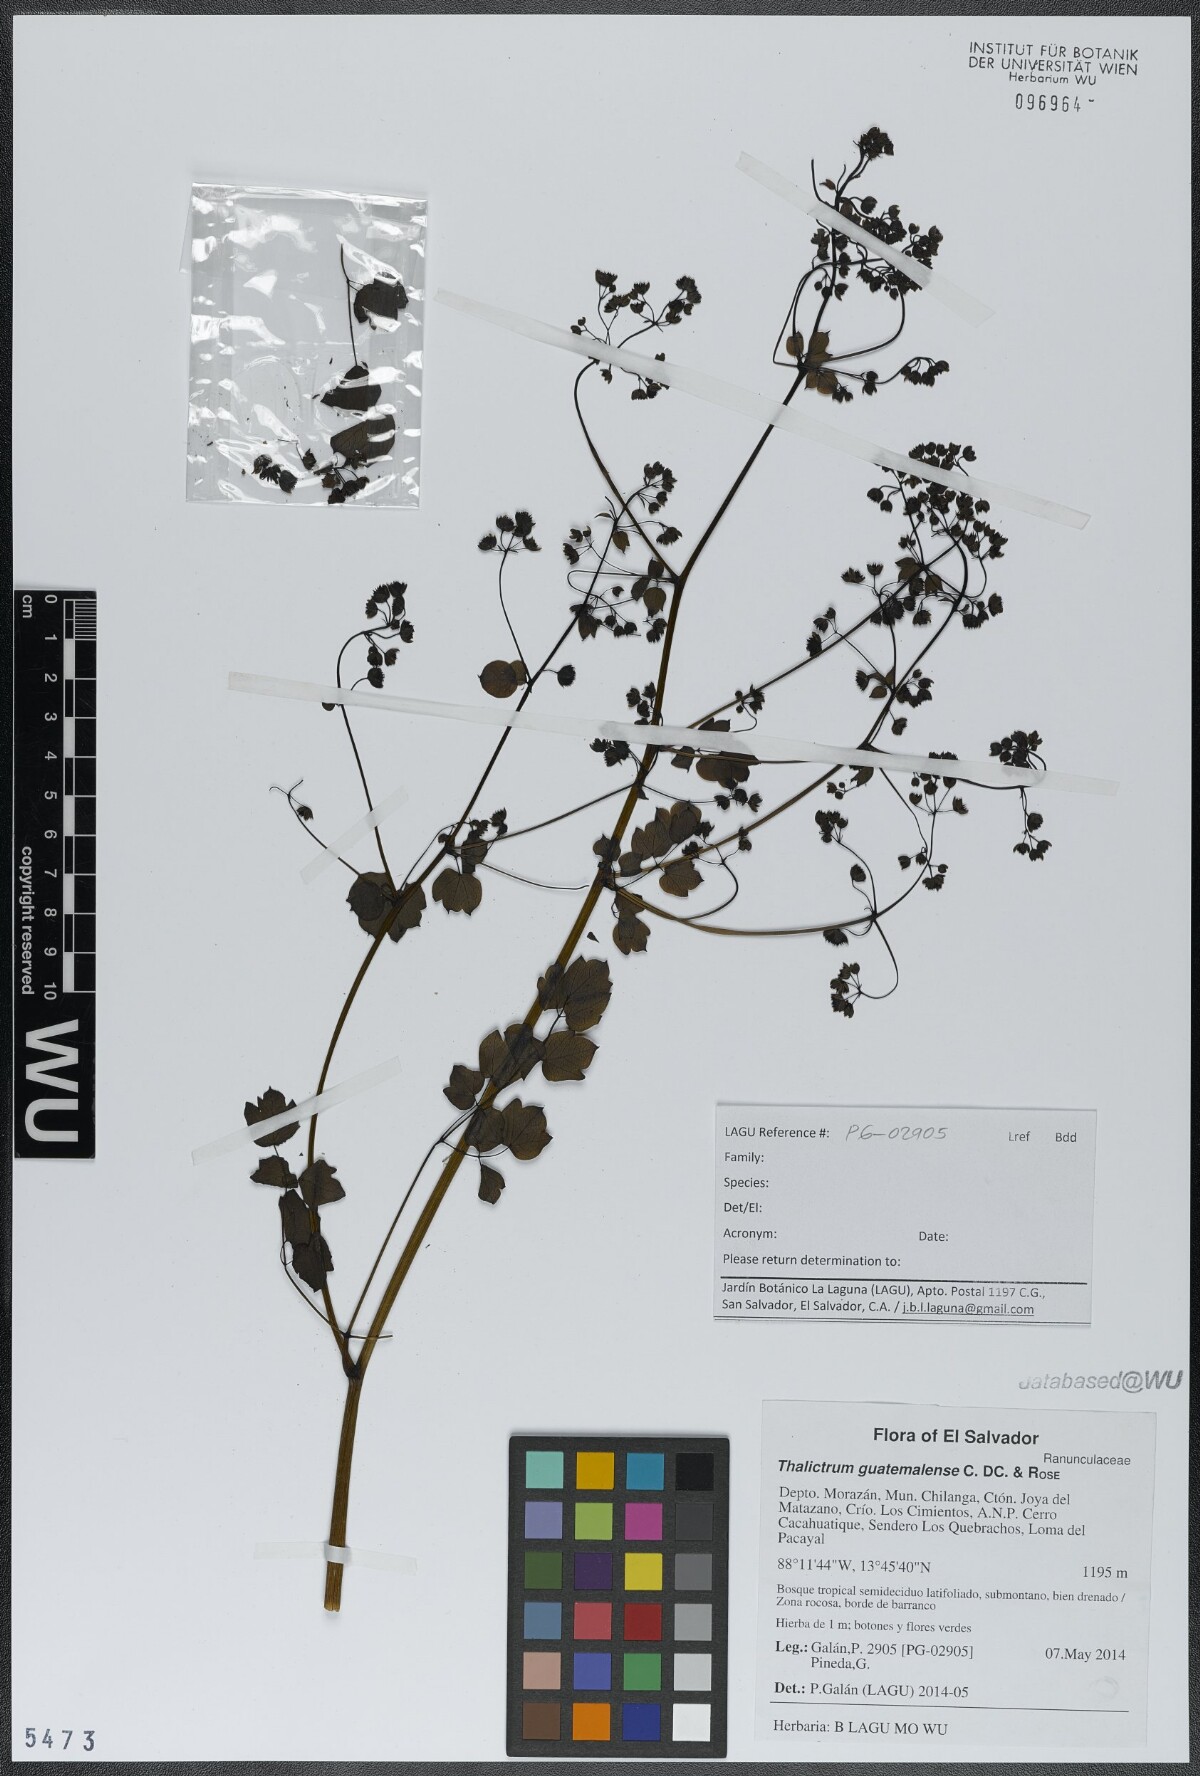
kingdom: Plantae
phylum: Tracheophyta
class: Magnoliopsida
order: Ranunculales
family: Ranunculaceae
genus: Thalictrum
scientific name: Thalictrum guatemalense
